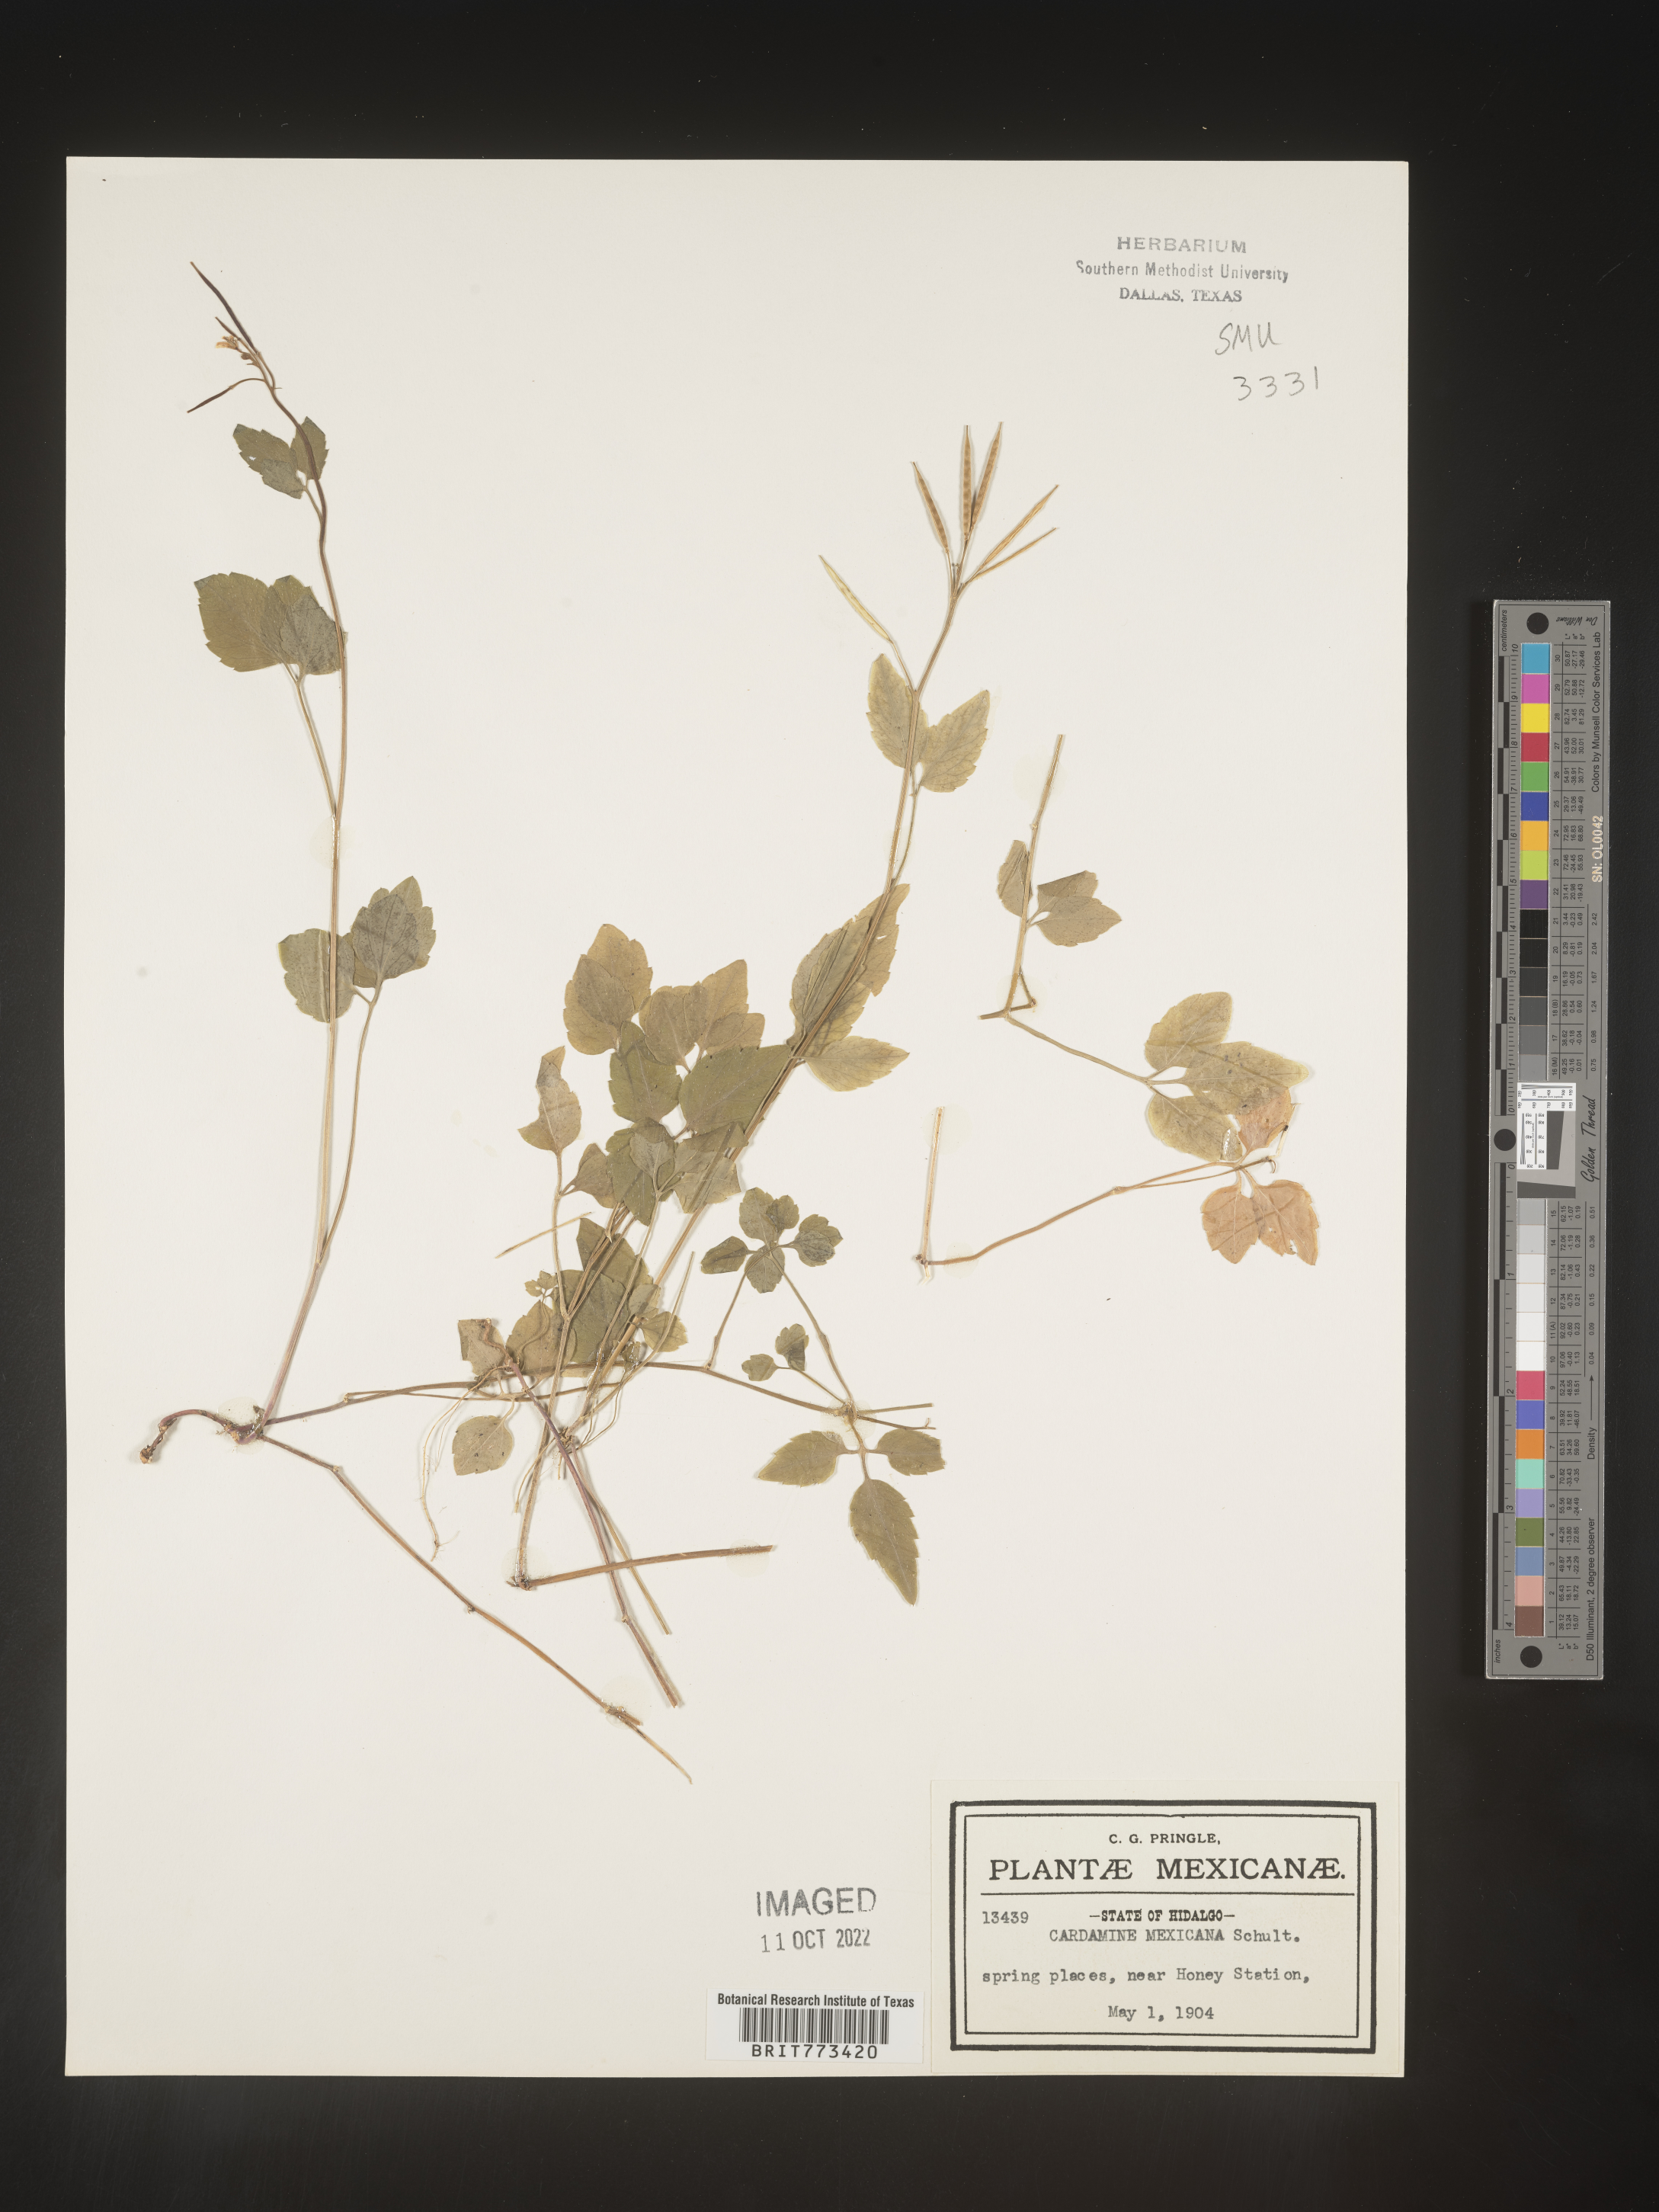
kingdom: Plantae
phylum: Tracheophyta
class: Magnoliopsida
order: Brassicales
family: Brassicaceae
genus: Cardamine
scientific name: Cardamine
